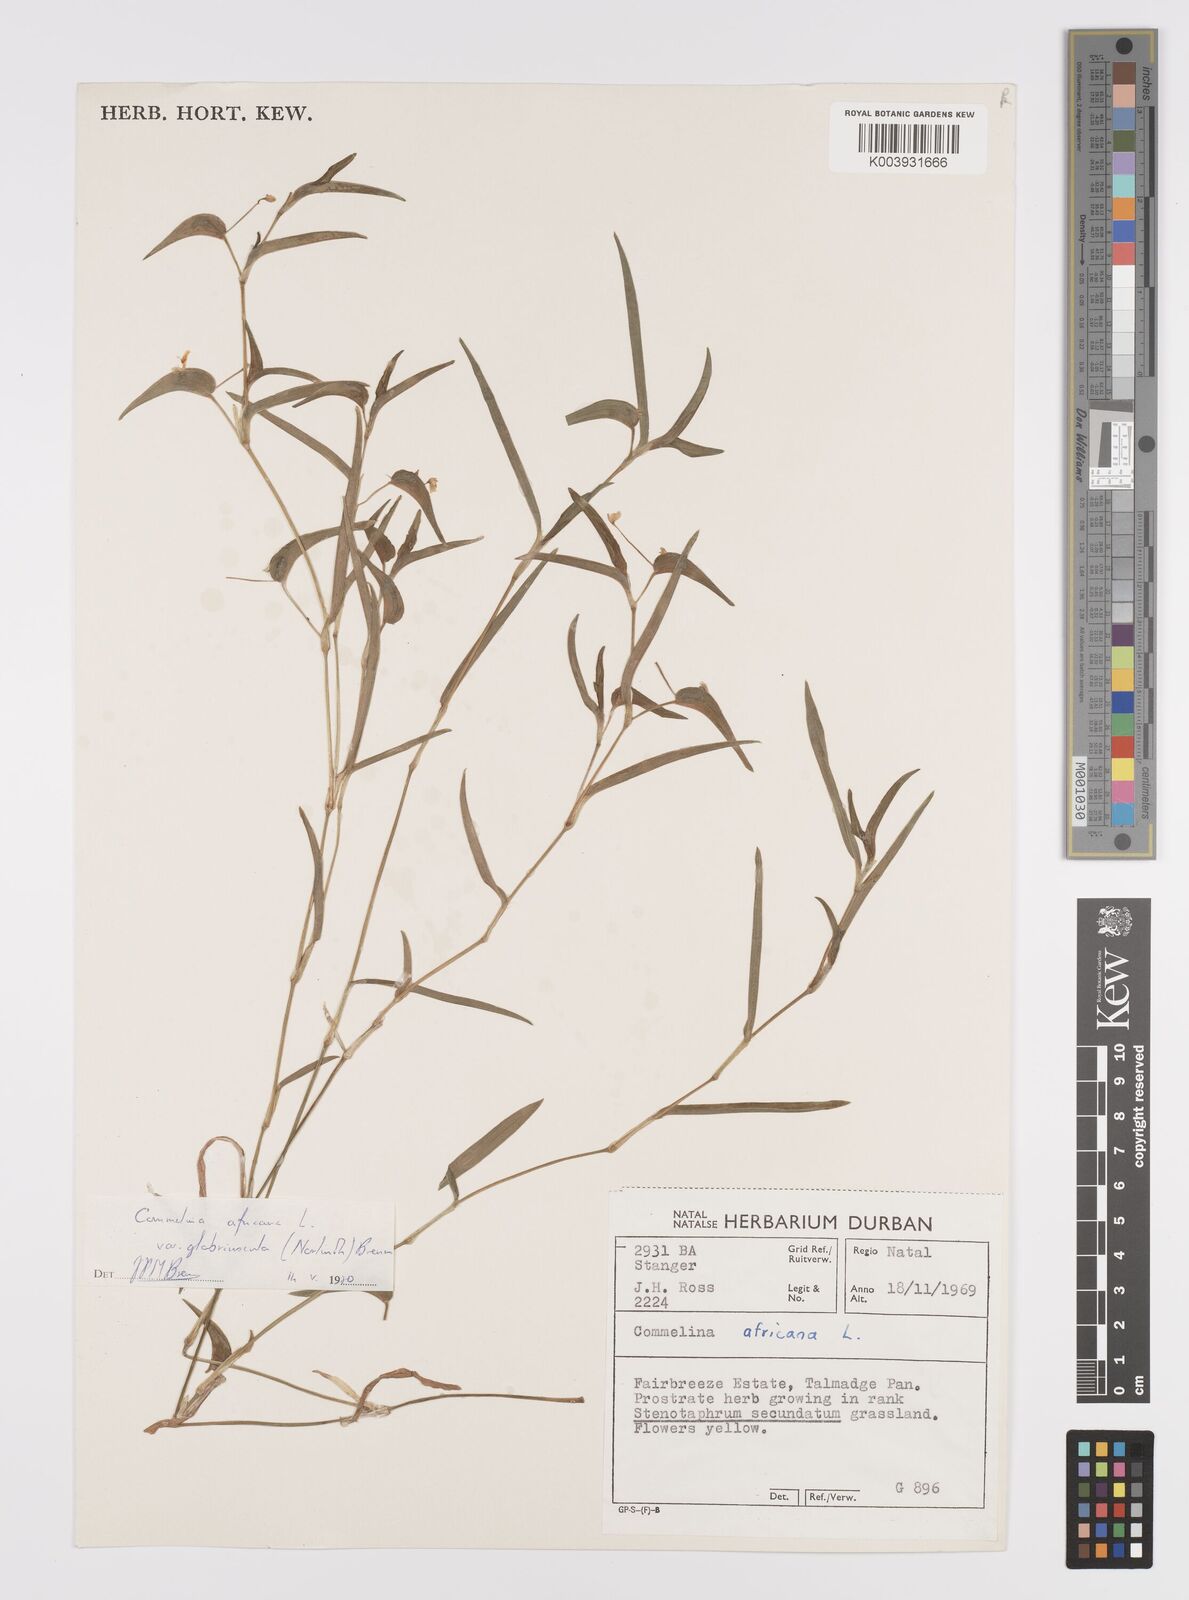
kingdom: Plantae
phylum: Tracheophyta
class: Liliopsida
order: Commelinales
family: Commelinaceae
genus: Commelina
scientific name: Commelina africana
